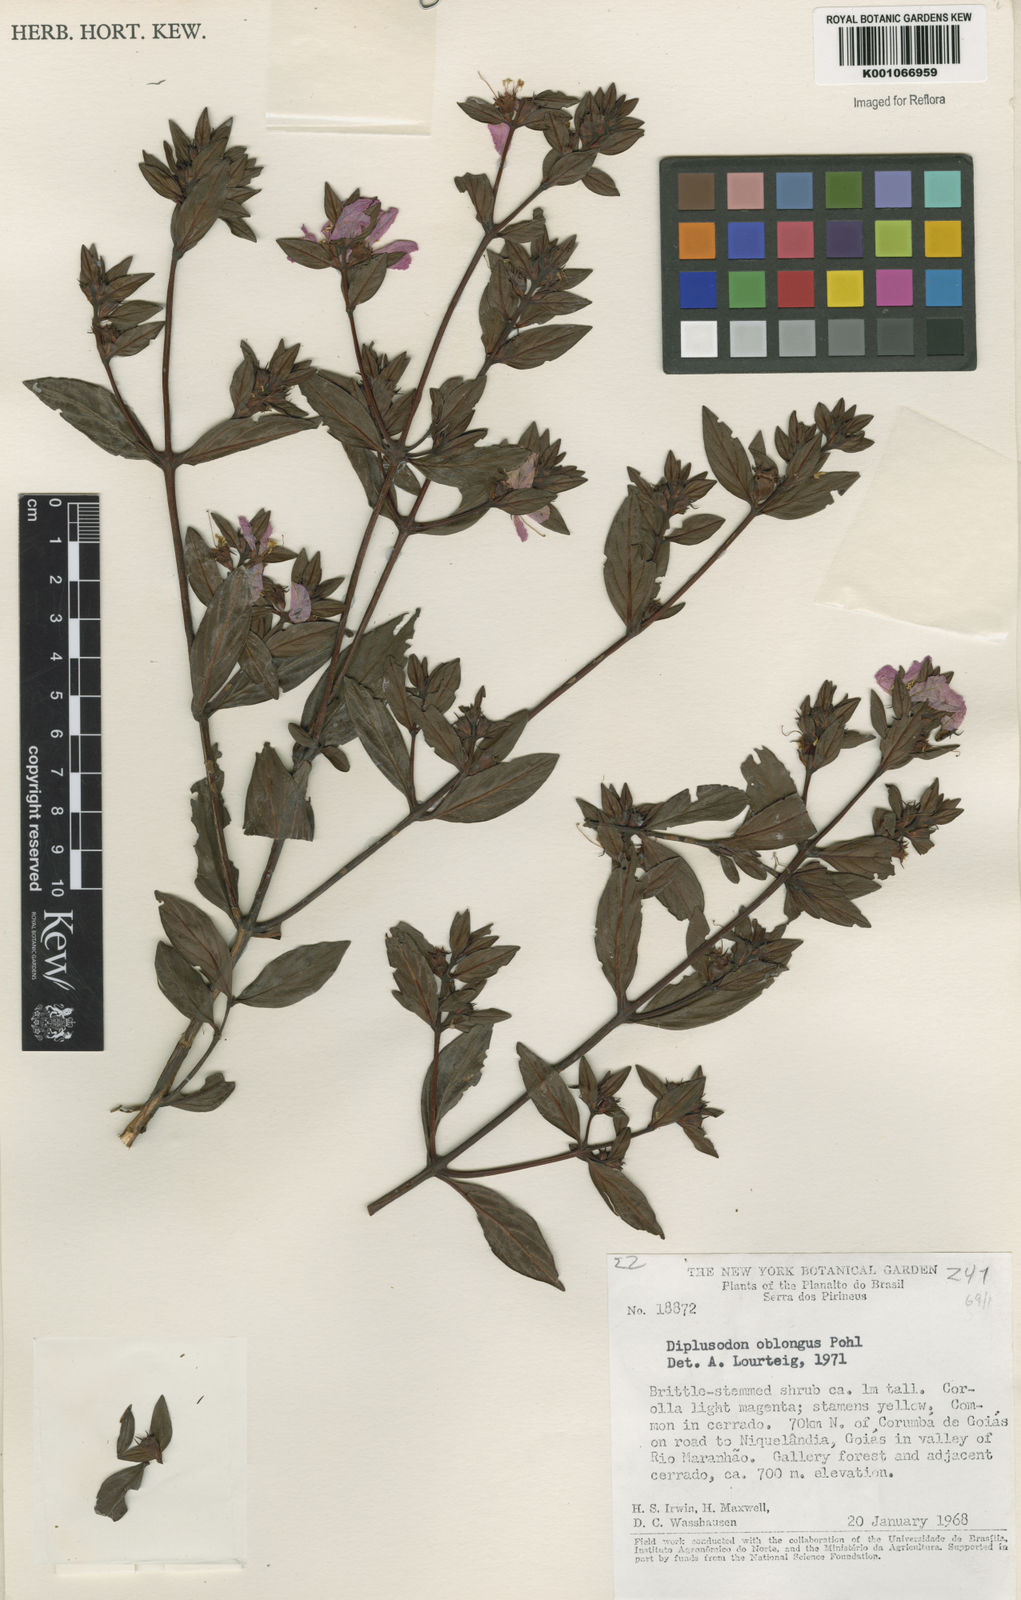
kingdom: Plantae
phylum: Tracheophyta
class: Magnoliopsida
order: Myrtales
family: Lythraceae
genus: Diplusodon
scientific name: Diplusodon oblongus
